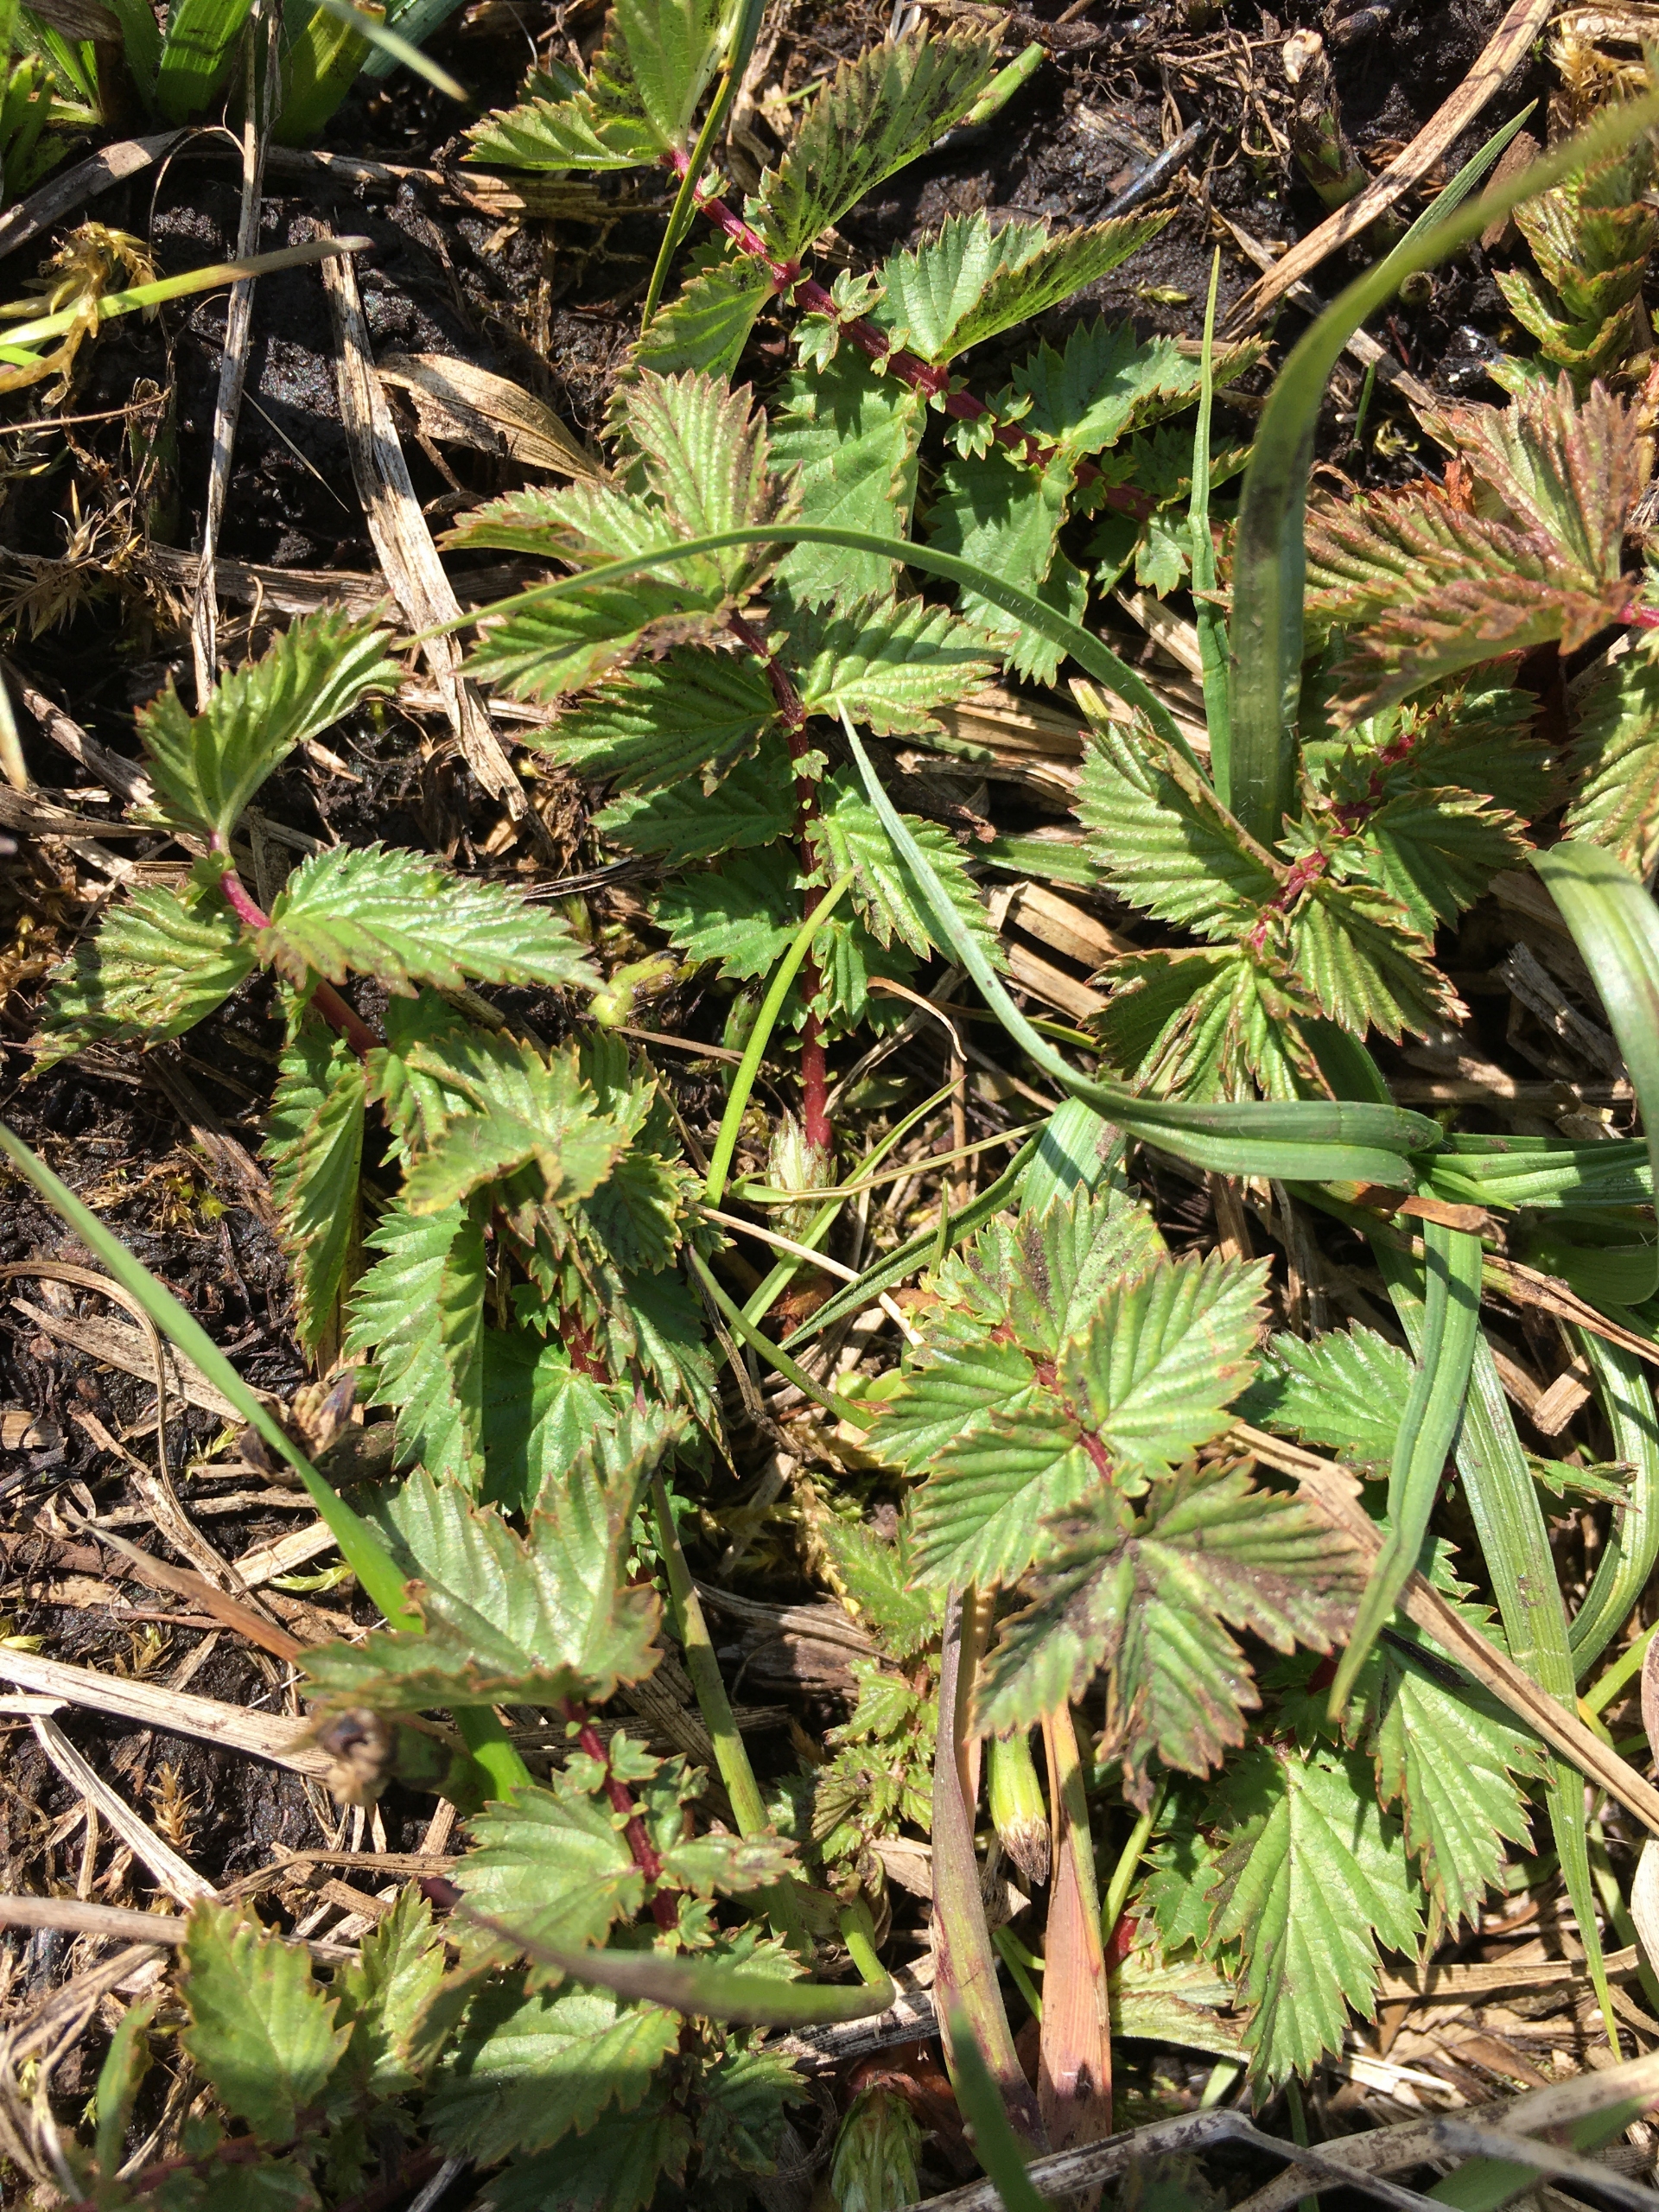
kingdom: Plantae
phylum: Tracheophyta
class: Magnoliopsida
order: Rosales
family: Rosaceae
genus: Filipendula
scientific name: Filipendula ulmaria
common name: Almindelig mjødurt
